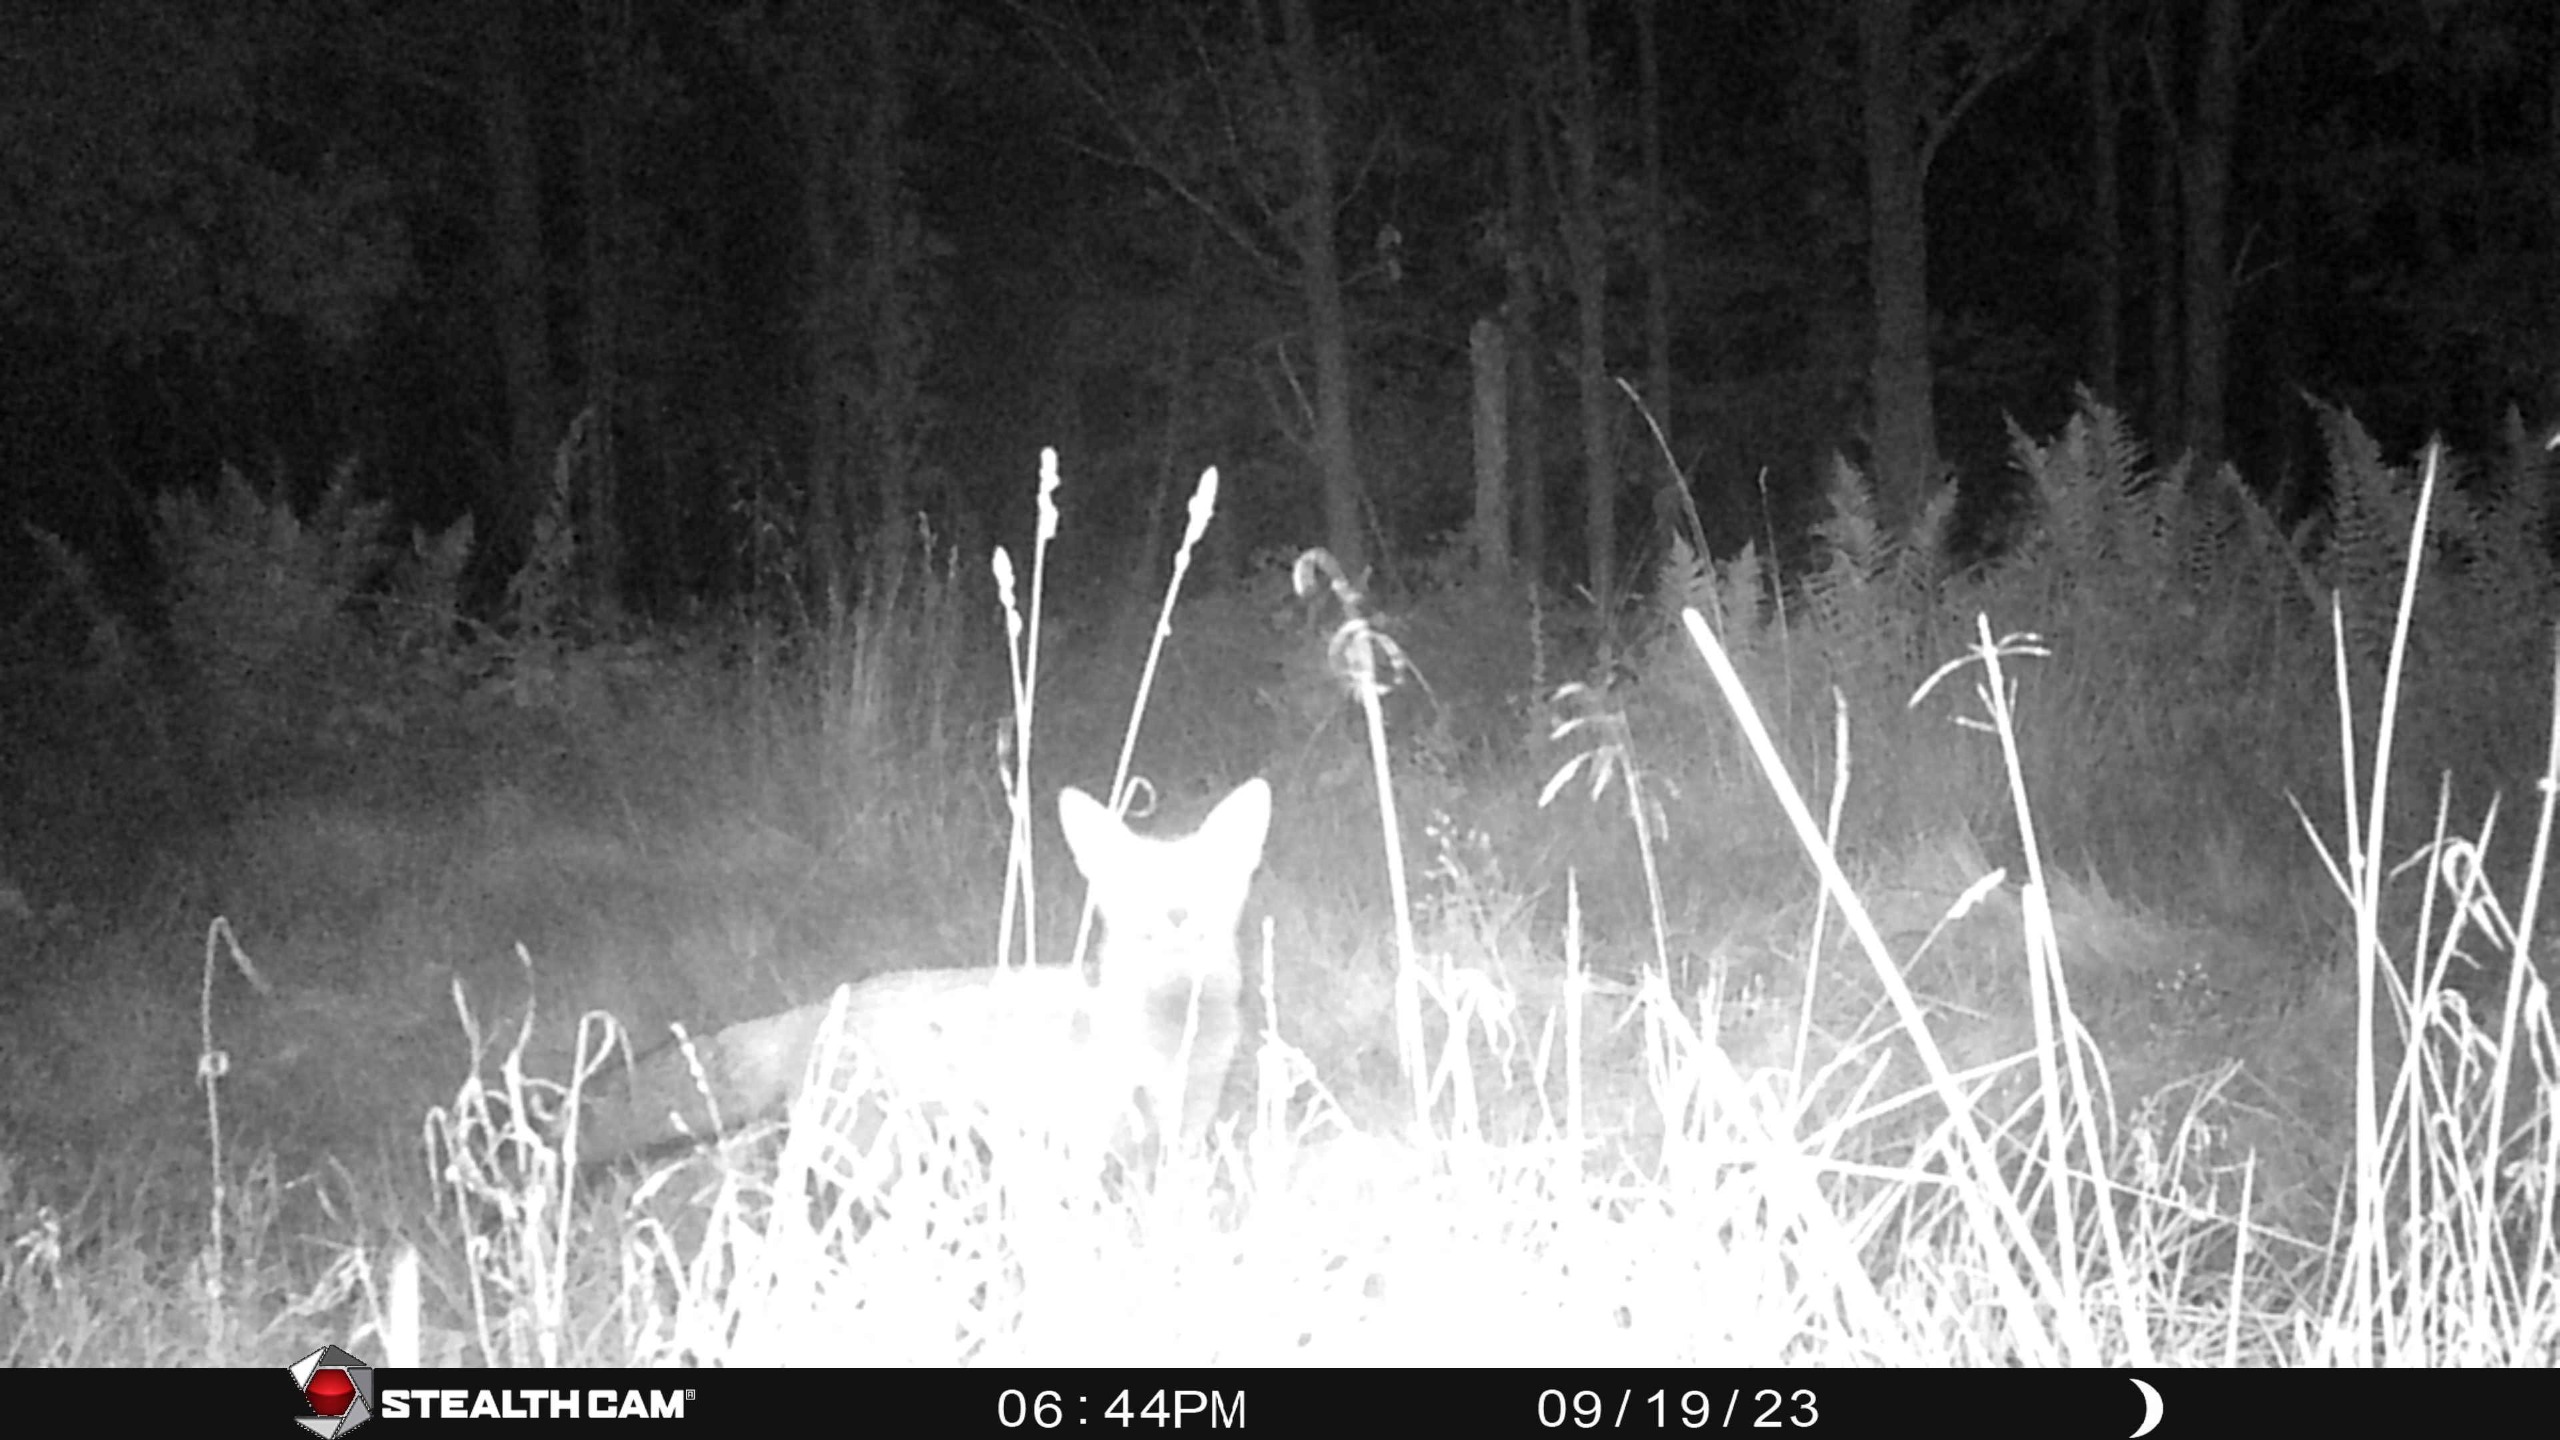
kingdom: Animalia
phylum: Chordata
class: Mammalia
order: Carnivora
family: Canidae
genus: Vulpes
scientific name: Vulpes vulpes
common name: Ræv
